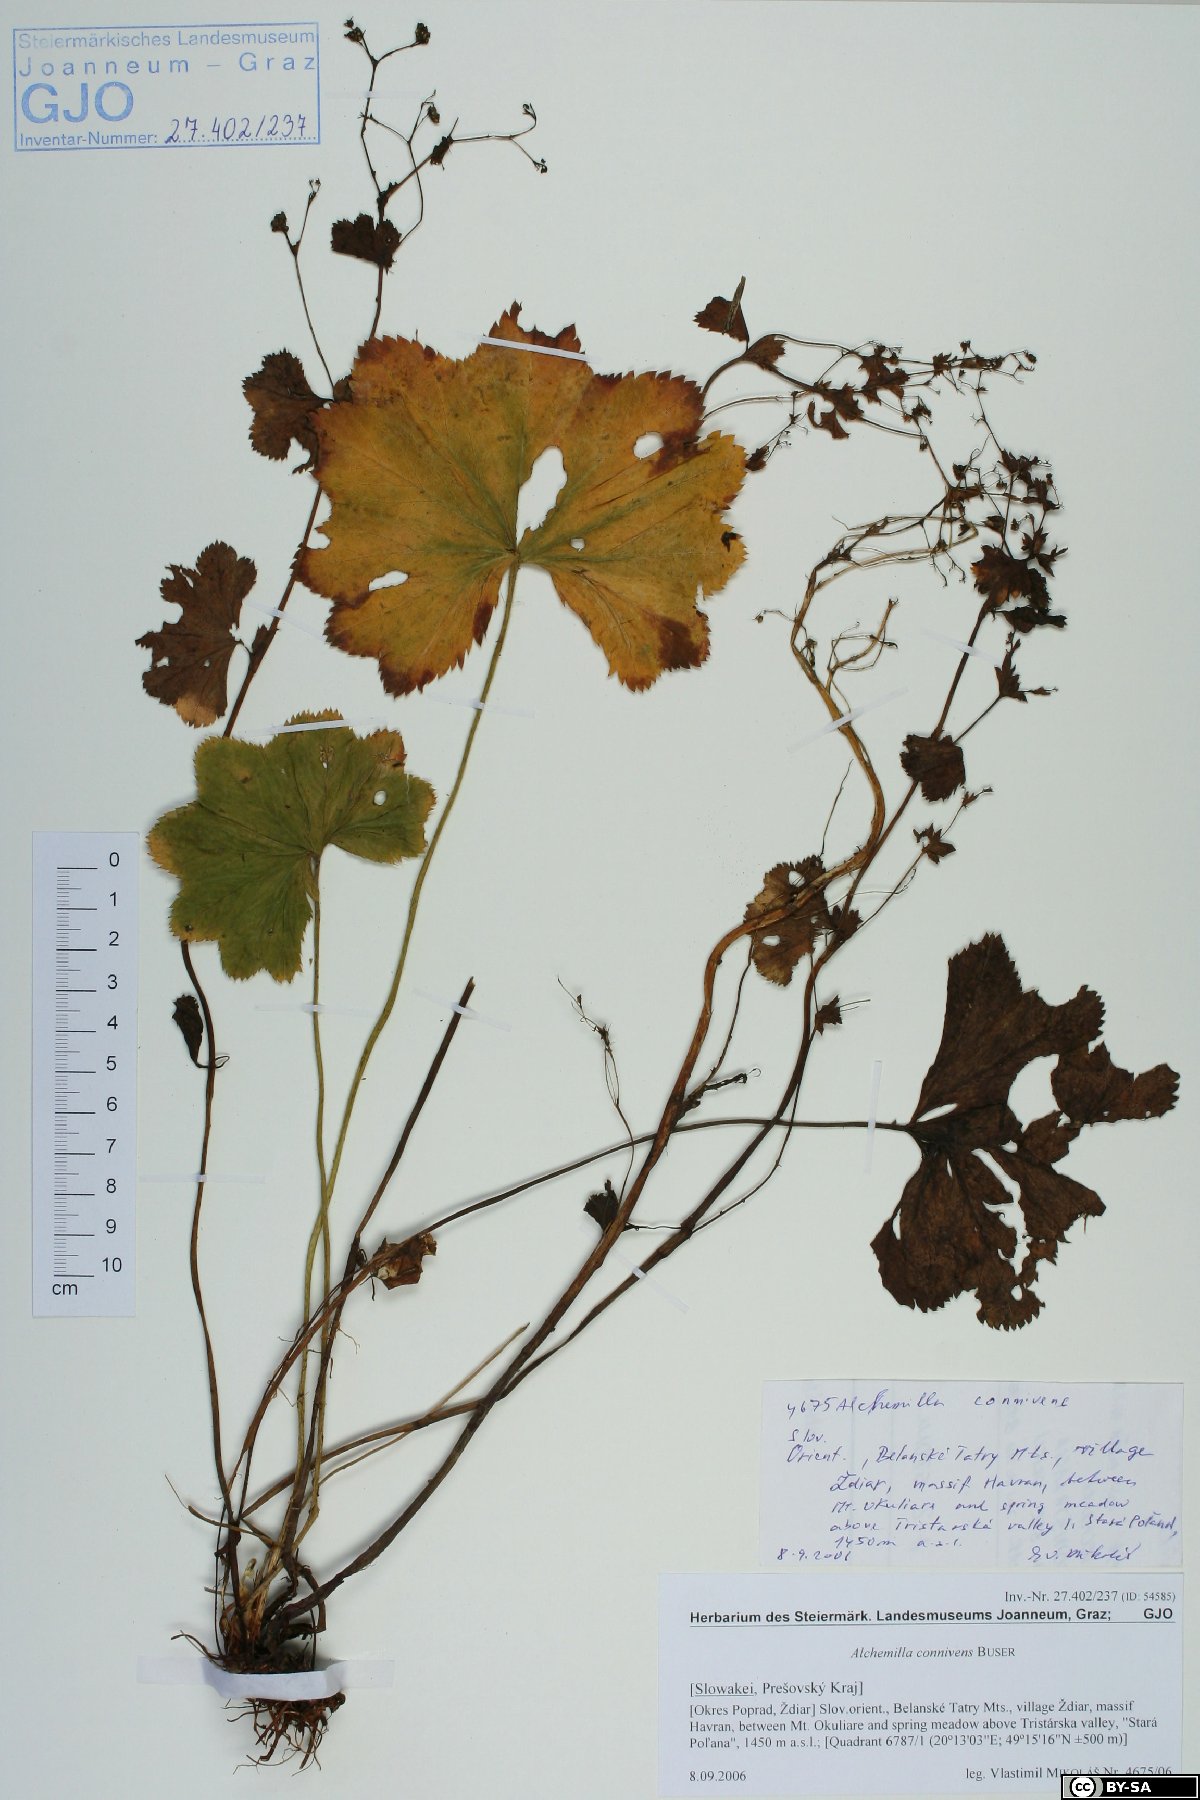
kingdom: Plantae
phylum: Tracheophyta
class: Magnoliopsida
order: Rosales
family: Rosaceae
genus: Alchemilla
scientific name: Alchemilla connivens
